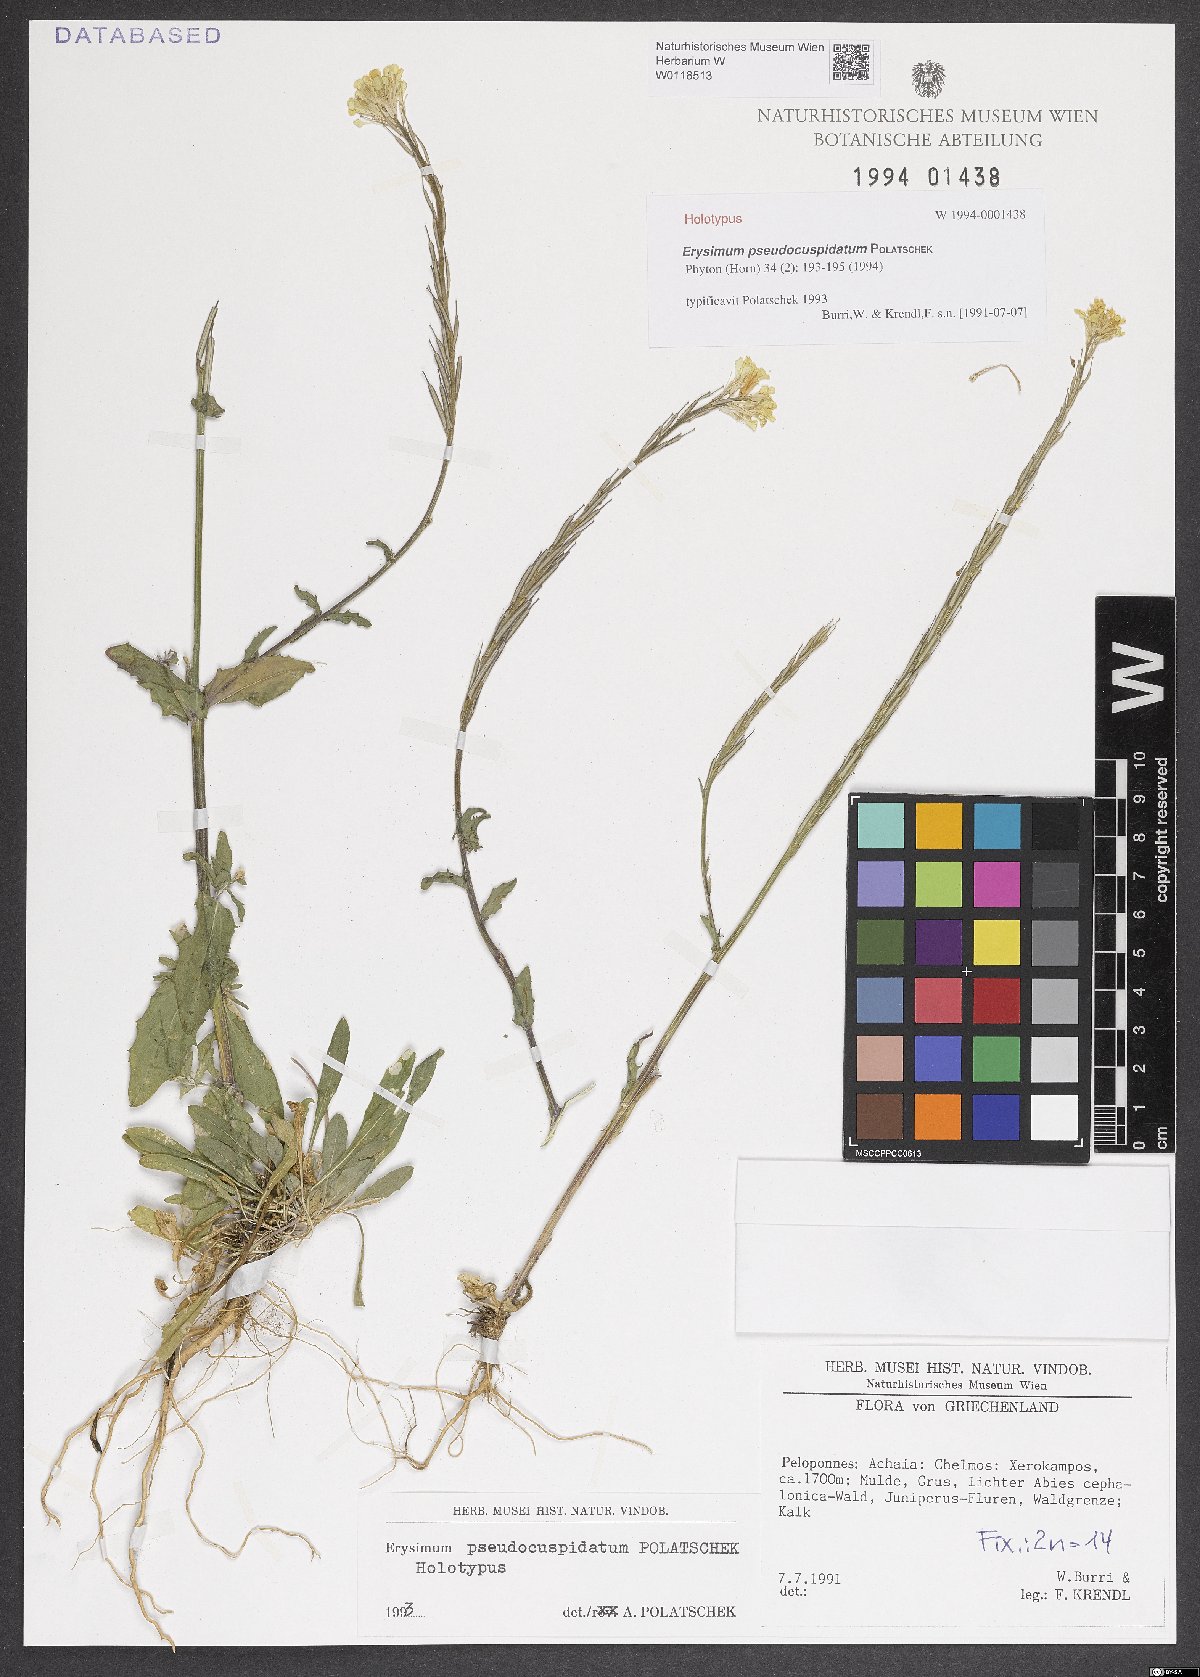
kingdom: Plantae
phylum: Tracheophyta
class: Magnoliopsida
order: Brassicales
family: Brassicaceae
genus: Erysimum
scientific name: Erysimum pseudocuspidatum
